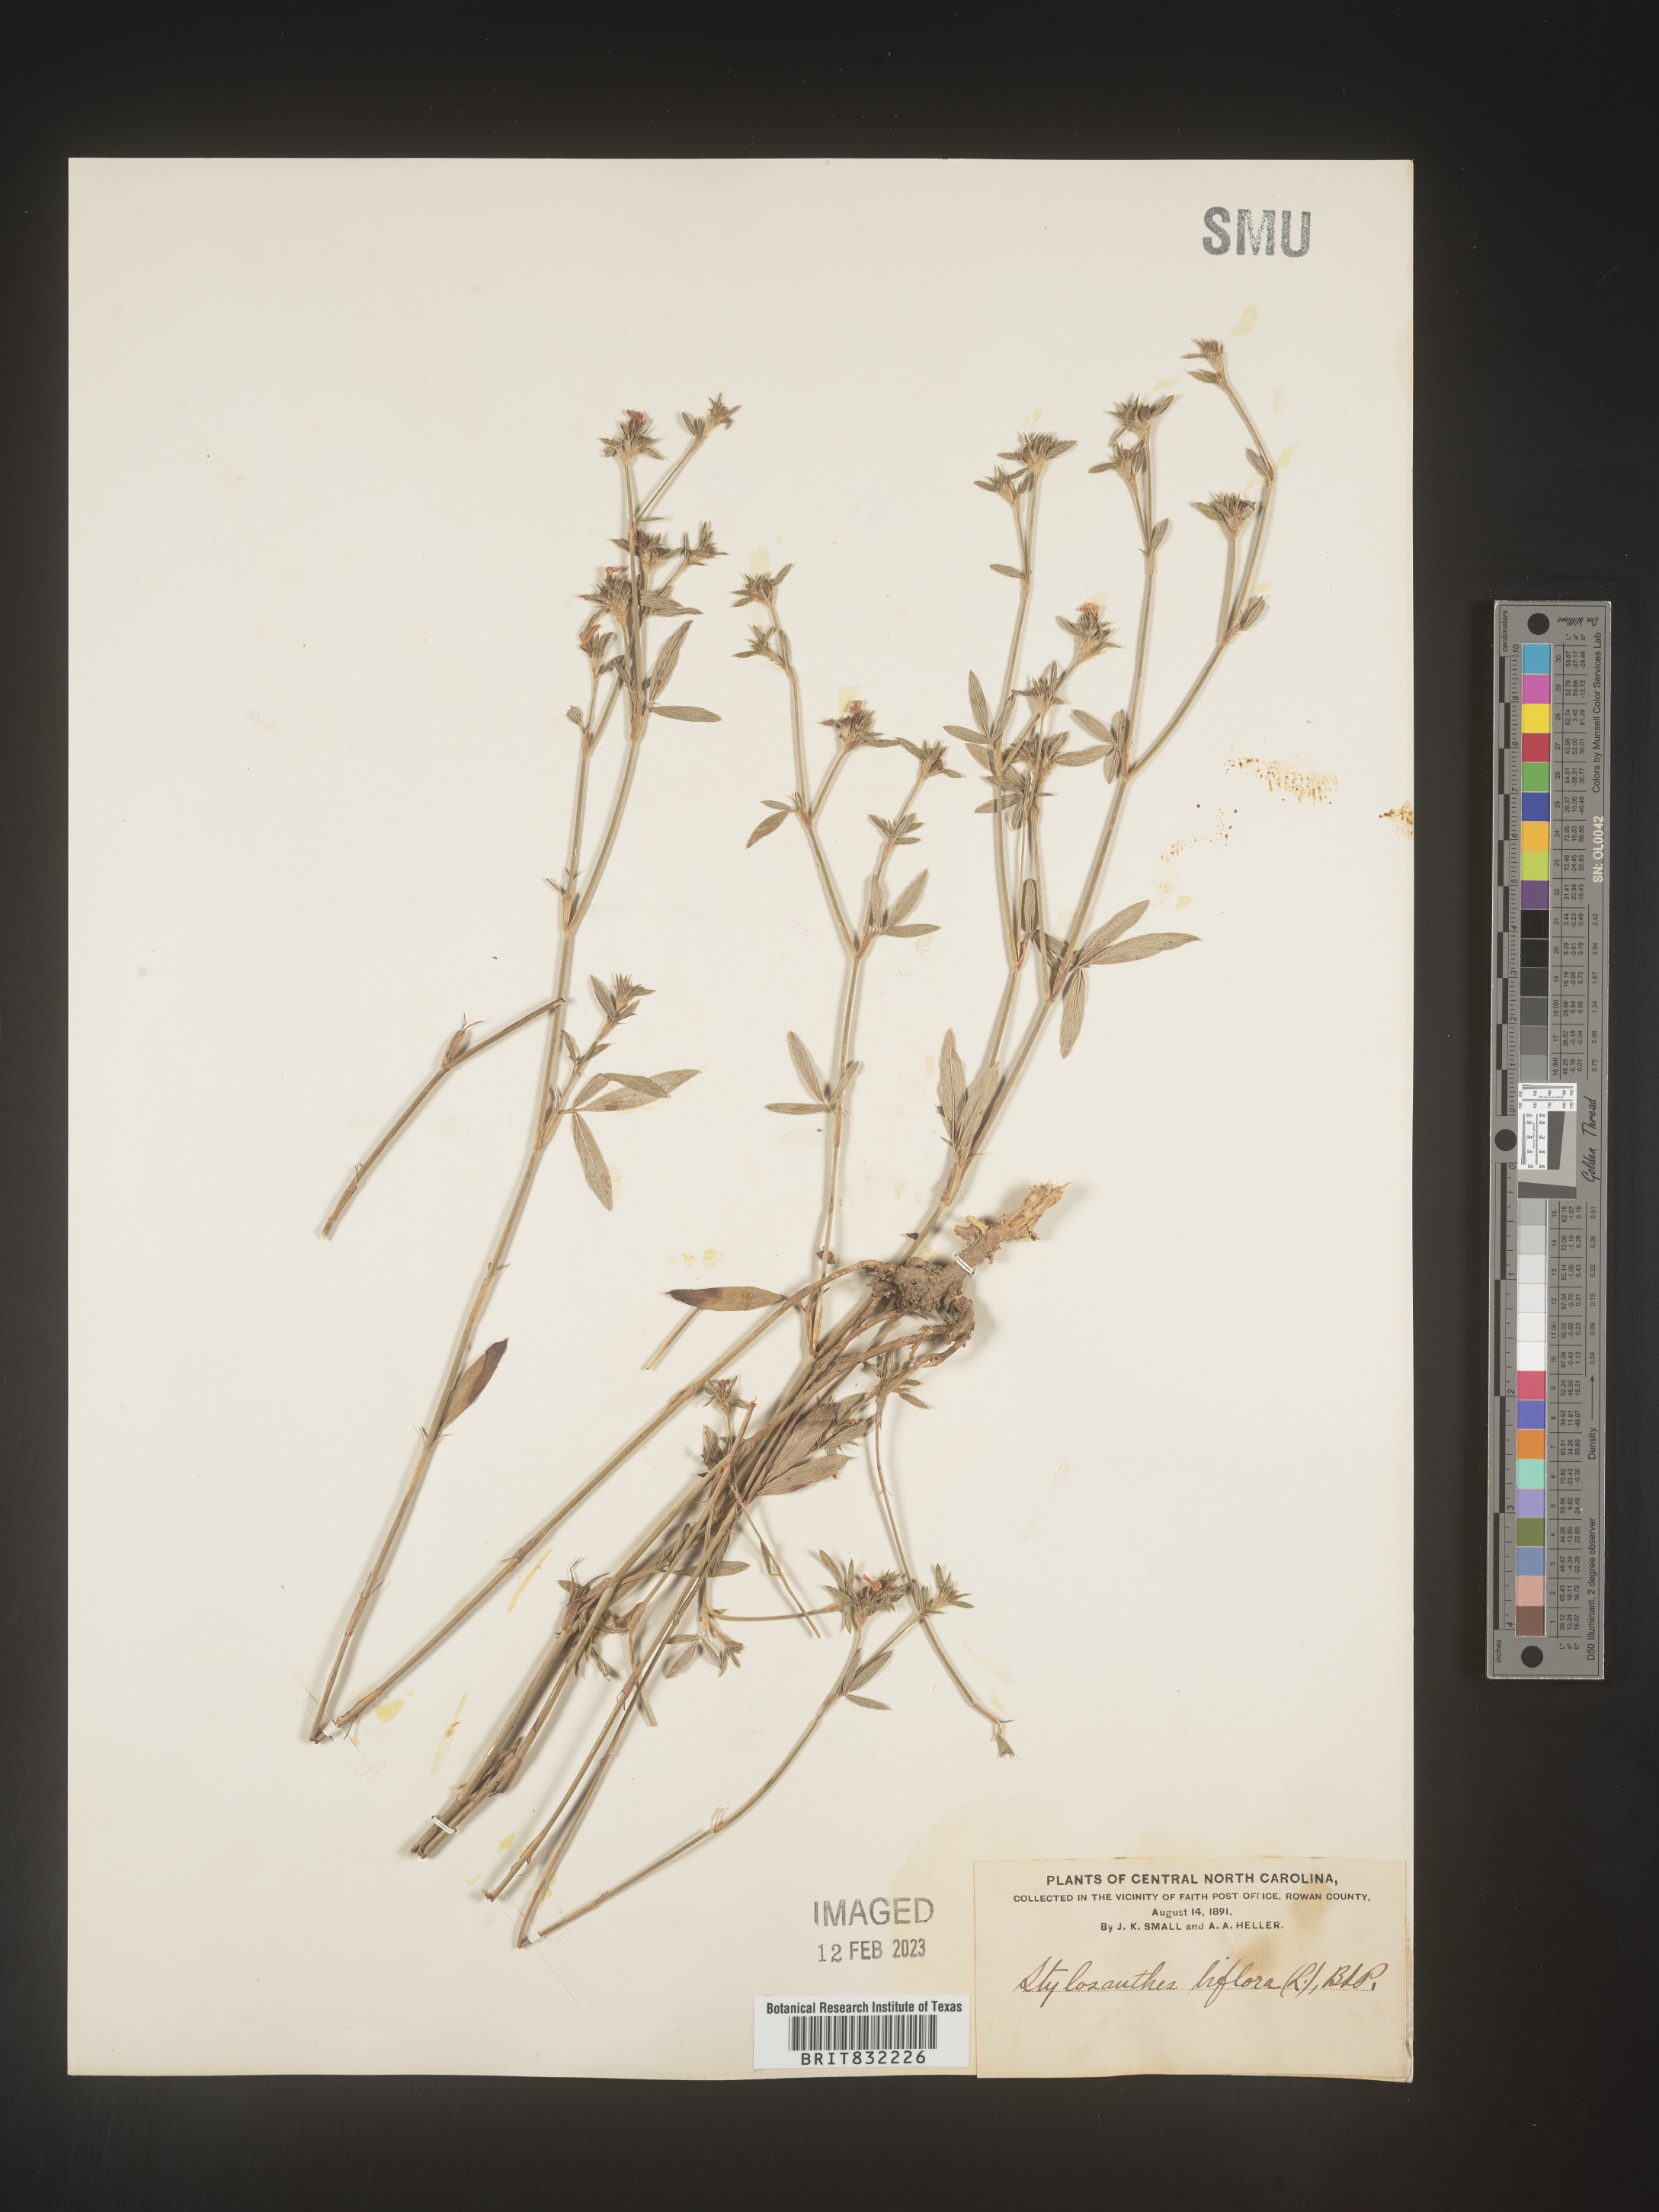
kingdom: Plantae
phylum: Tracheophyta
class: Magnoliopsida
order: Fabales
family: Fabaceae
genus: Stylosanthes
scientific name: Stylosanthes biflora
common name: Two-flower pencil-flower
